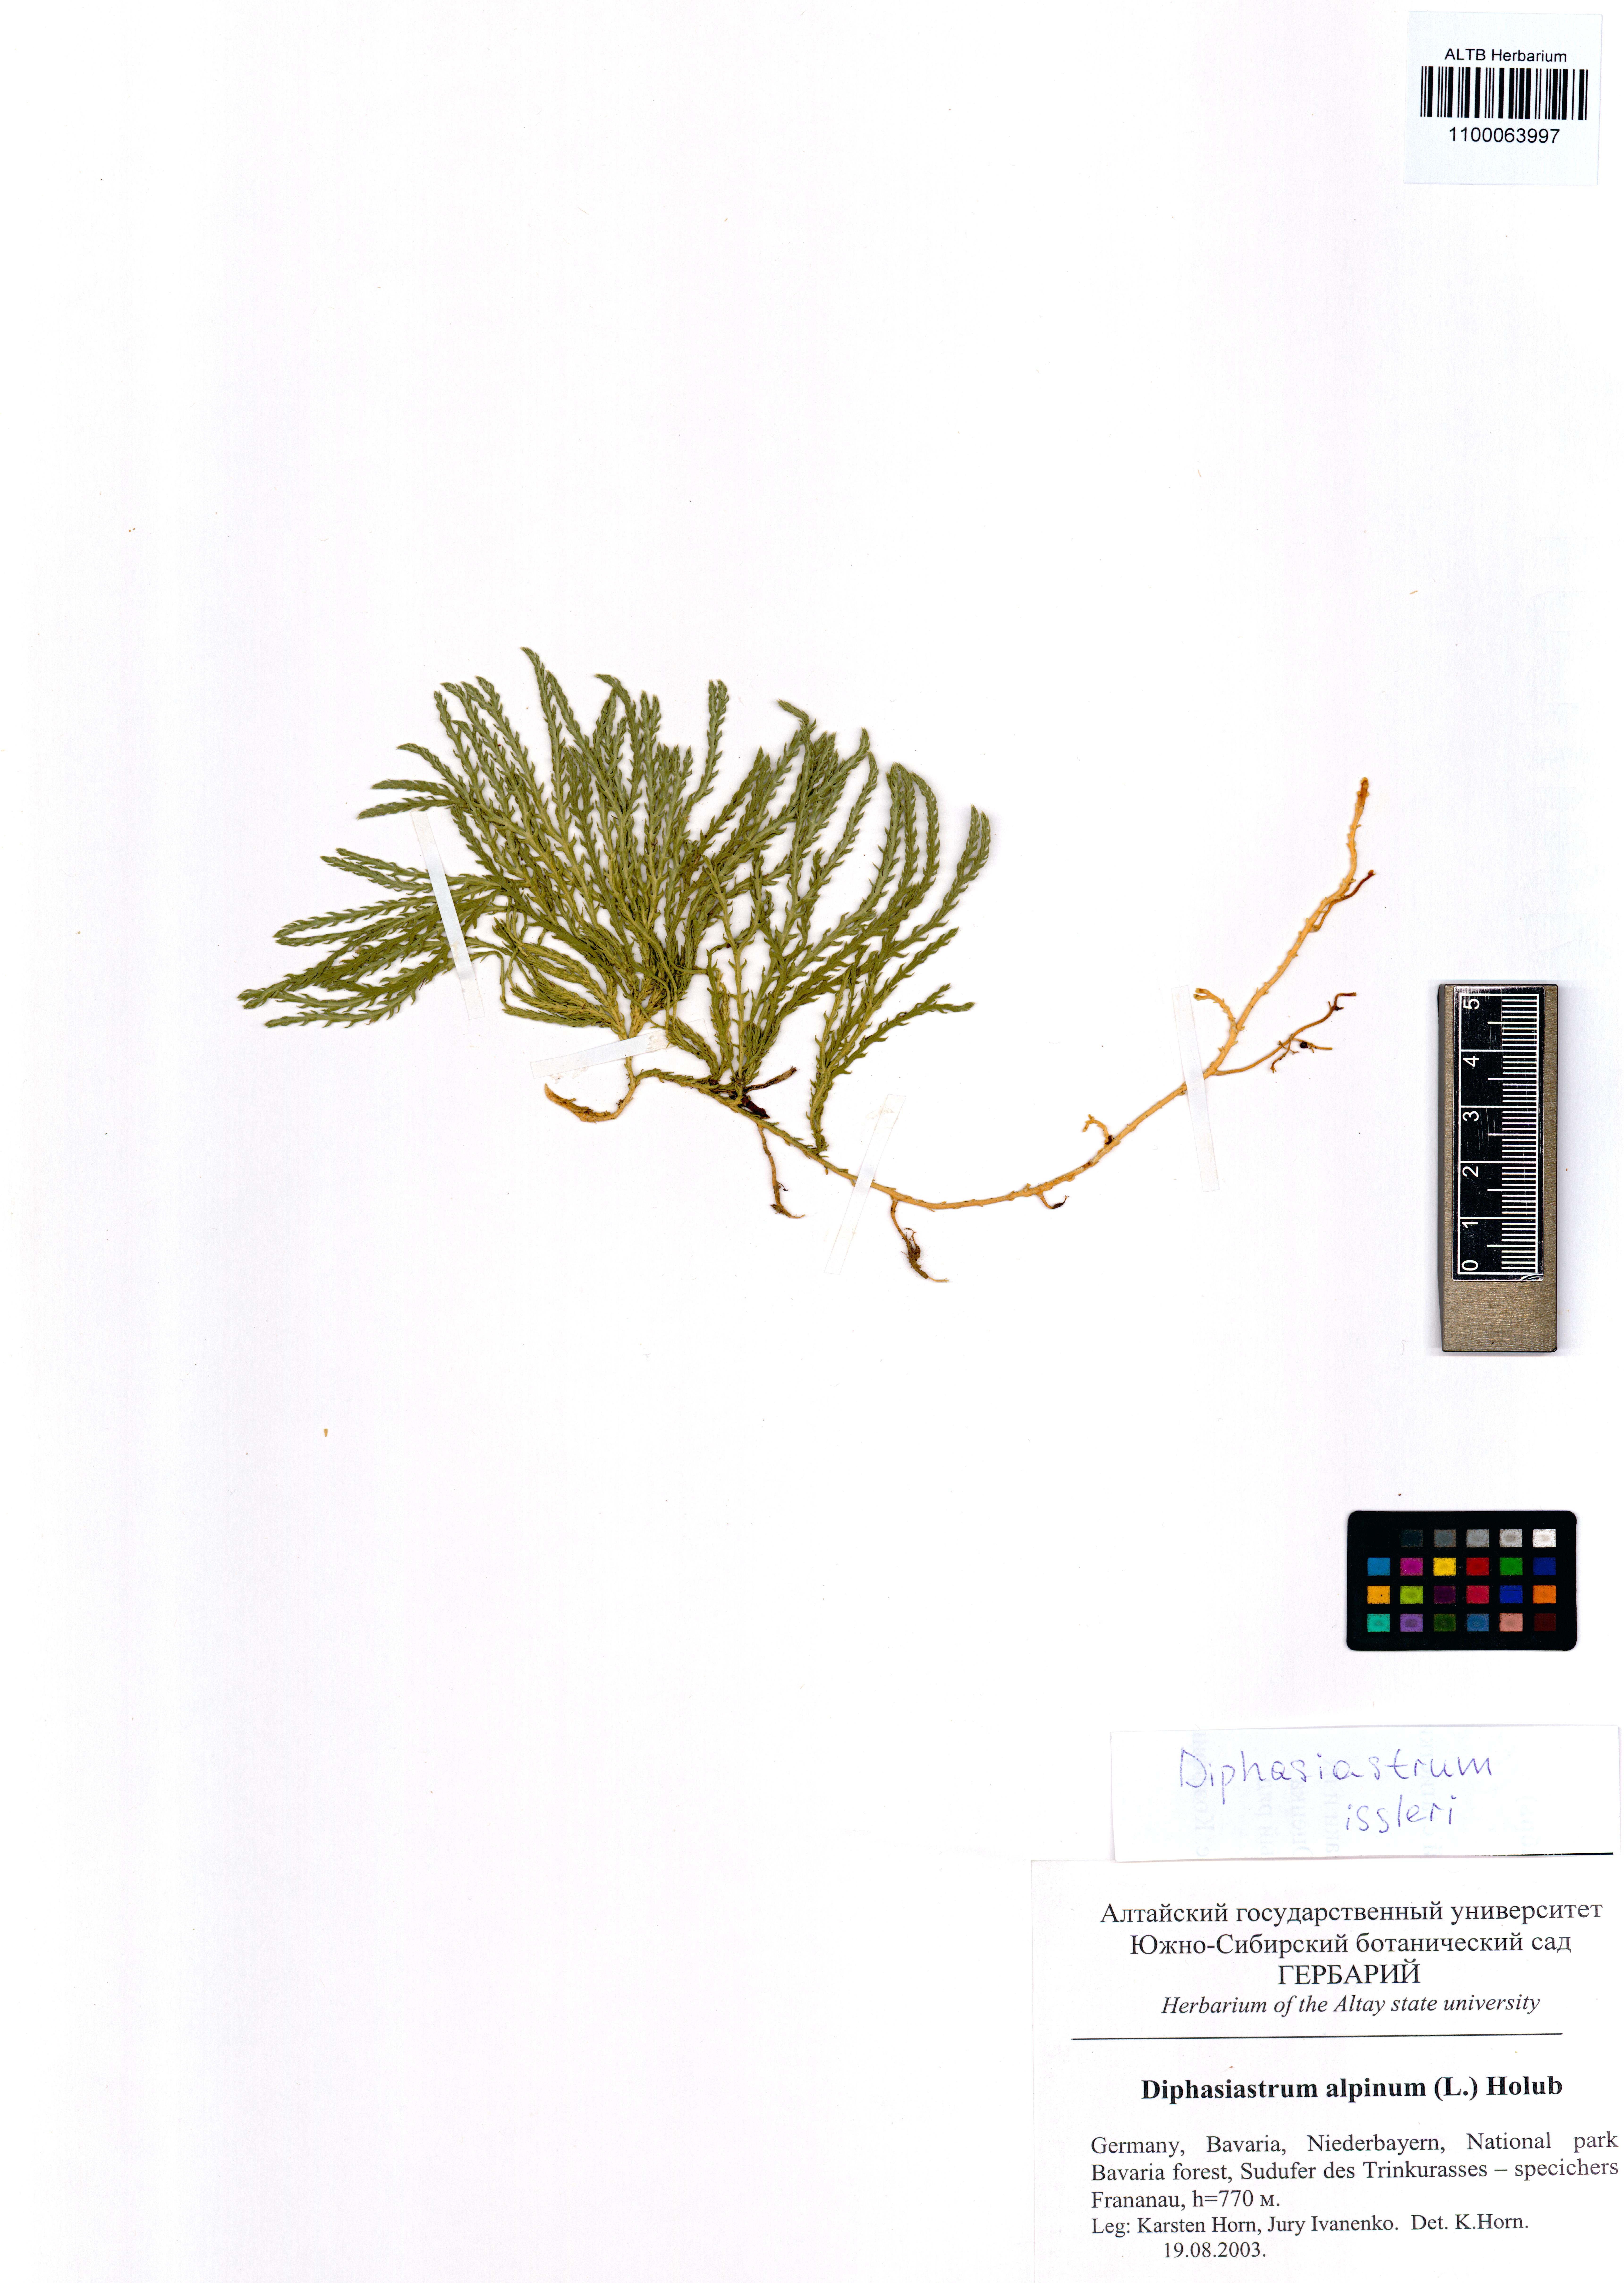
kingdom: Plantae
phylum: Tracheophyta
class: Lycopodiopsida
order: Lycopodiales
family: Lycopodiaceae
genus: Diphasiastrum
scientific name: Diphasiastrum issleri
